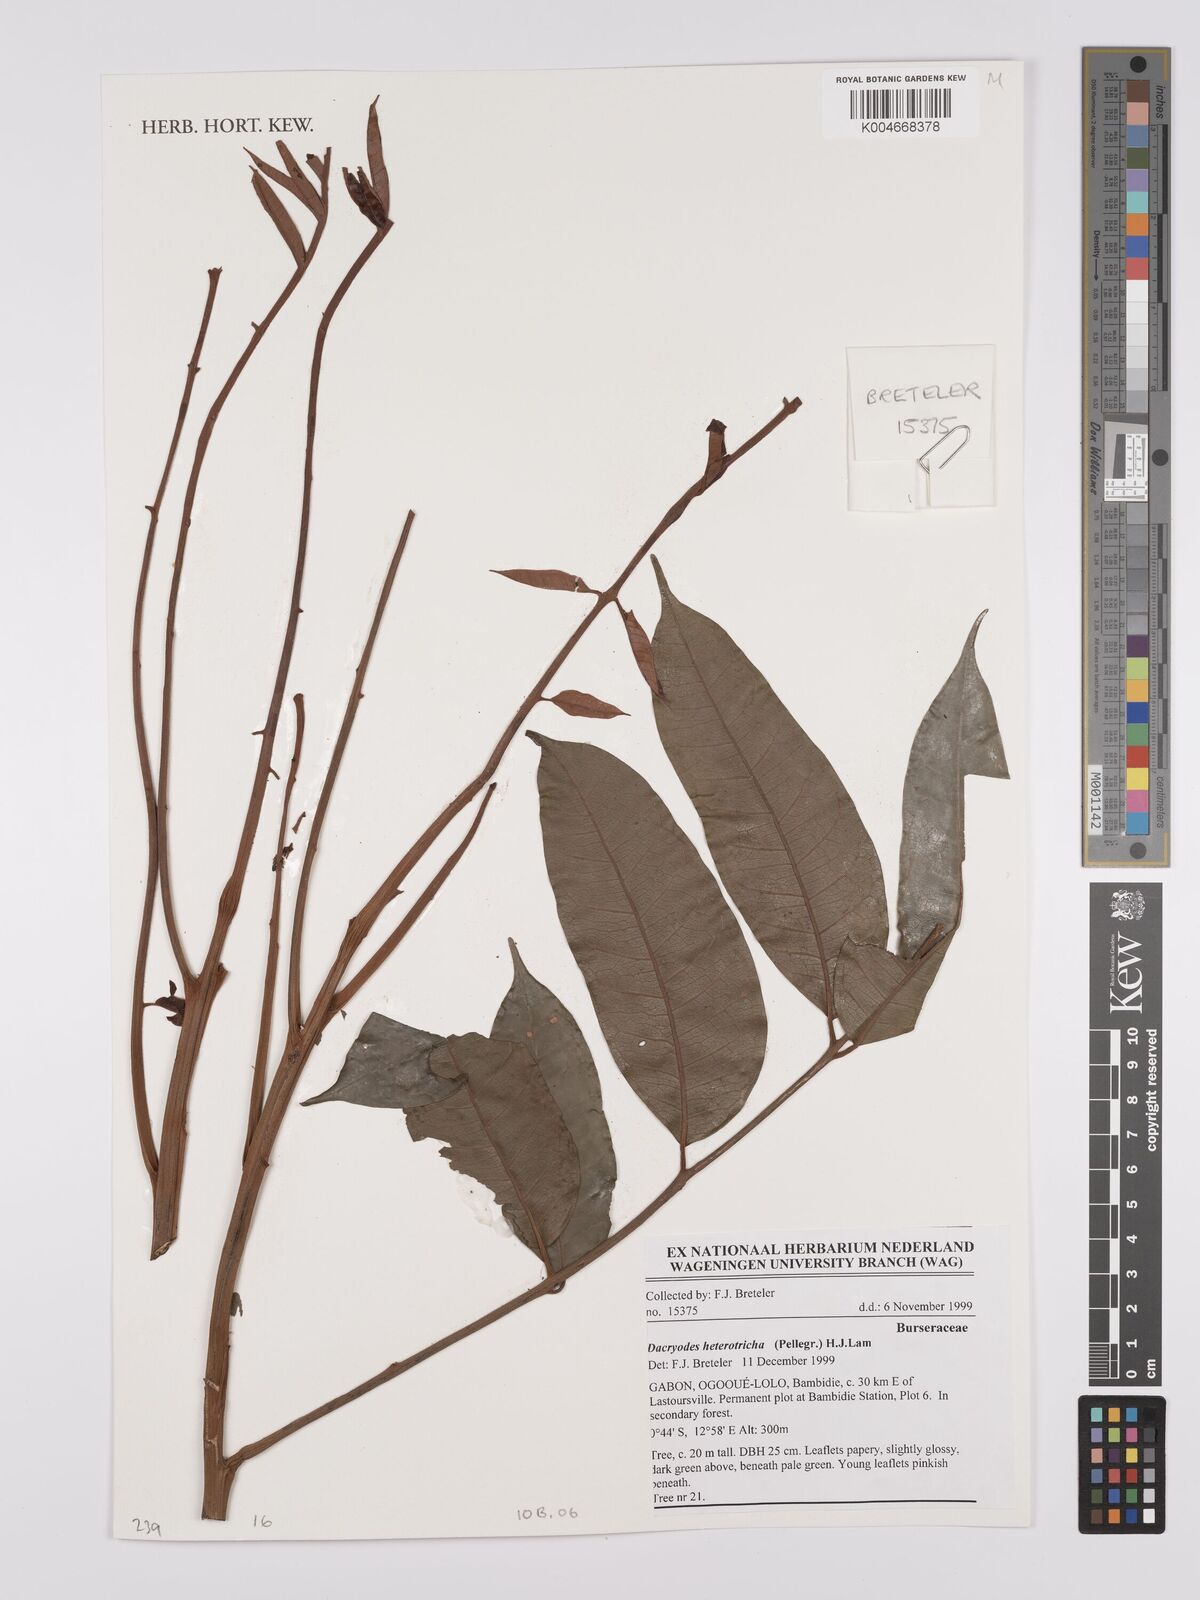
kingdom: Plantae
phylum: Tracheophyta
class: Magnoliopsida
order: Sapindales
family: Burseraceae
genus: Pachylobus
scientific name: Pachylobus heterotrichus
